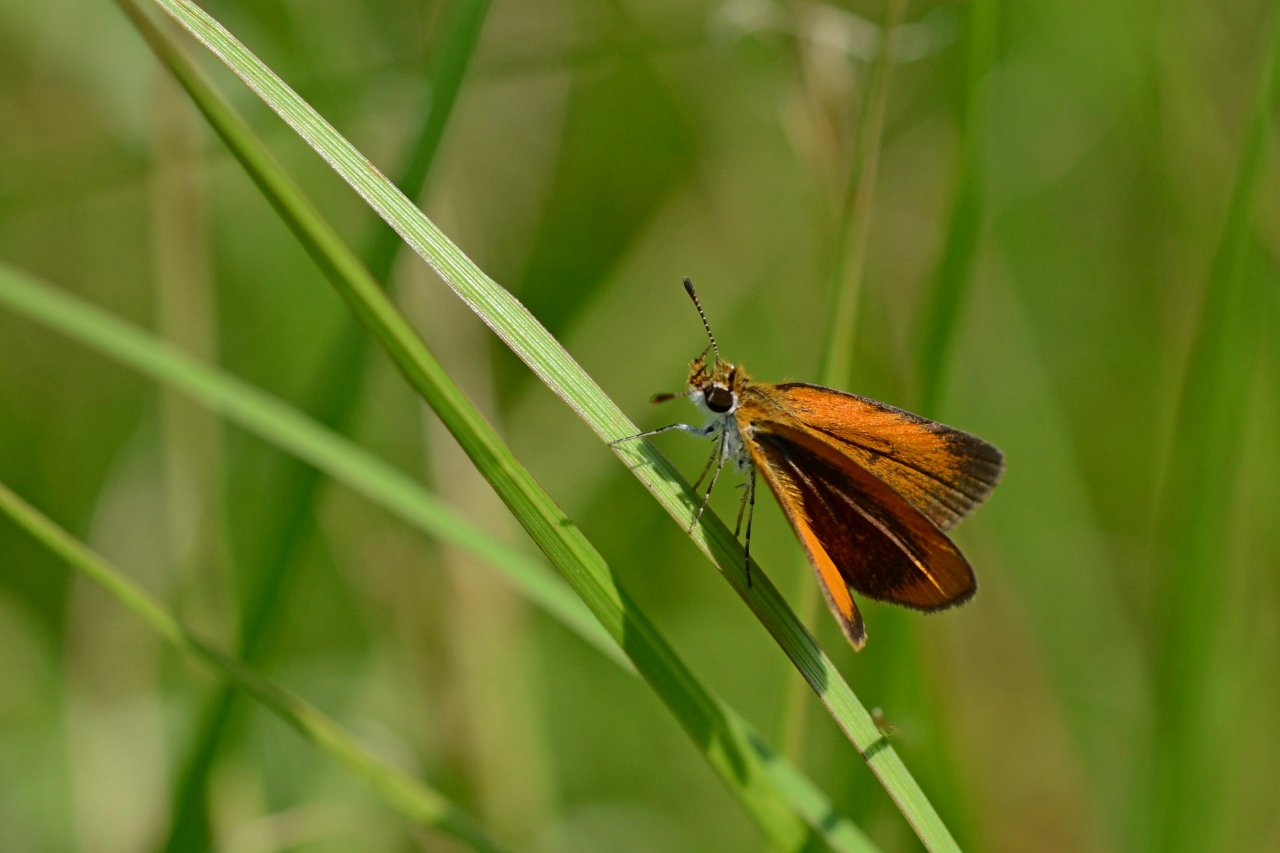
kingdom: Animalia
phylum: Arthropoda
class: Insecta
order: Lepidoptera
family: Hesperiidae
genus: Ancyloxypha
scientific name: Ancyloxypha numitor
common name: Least Skipper
